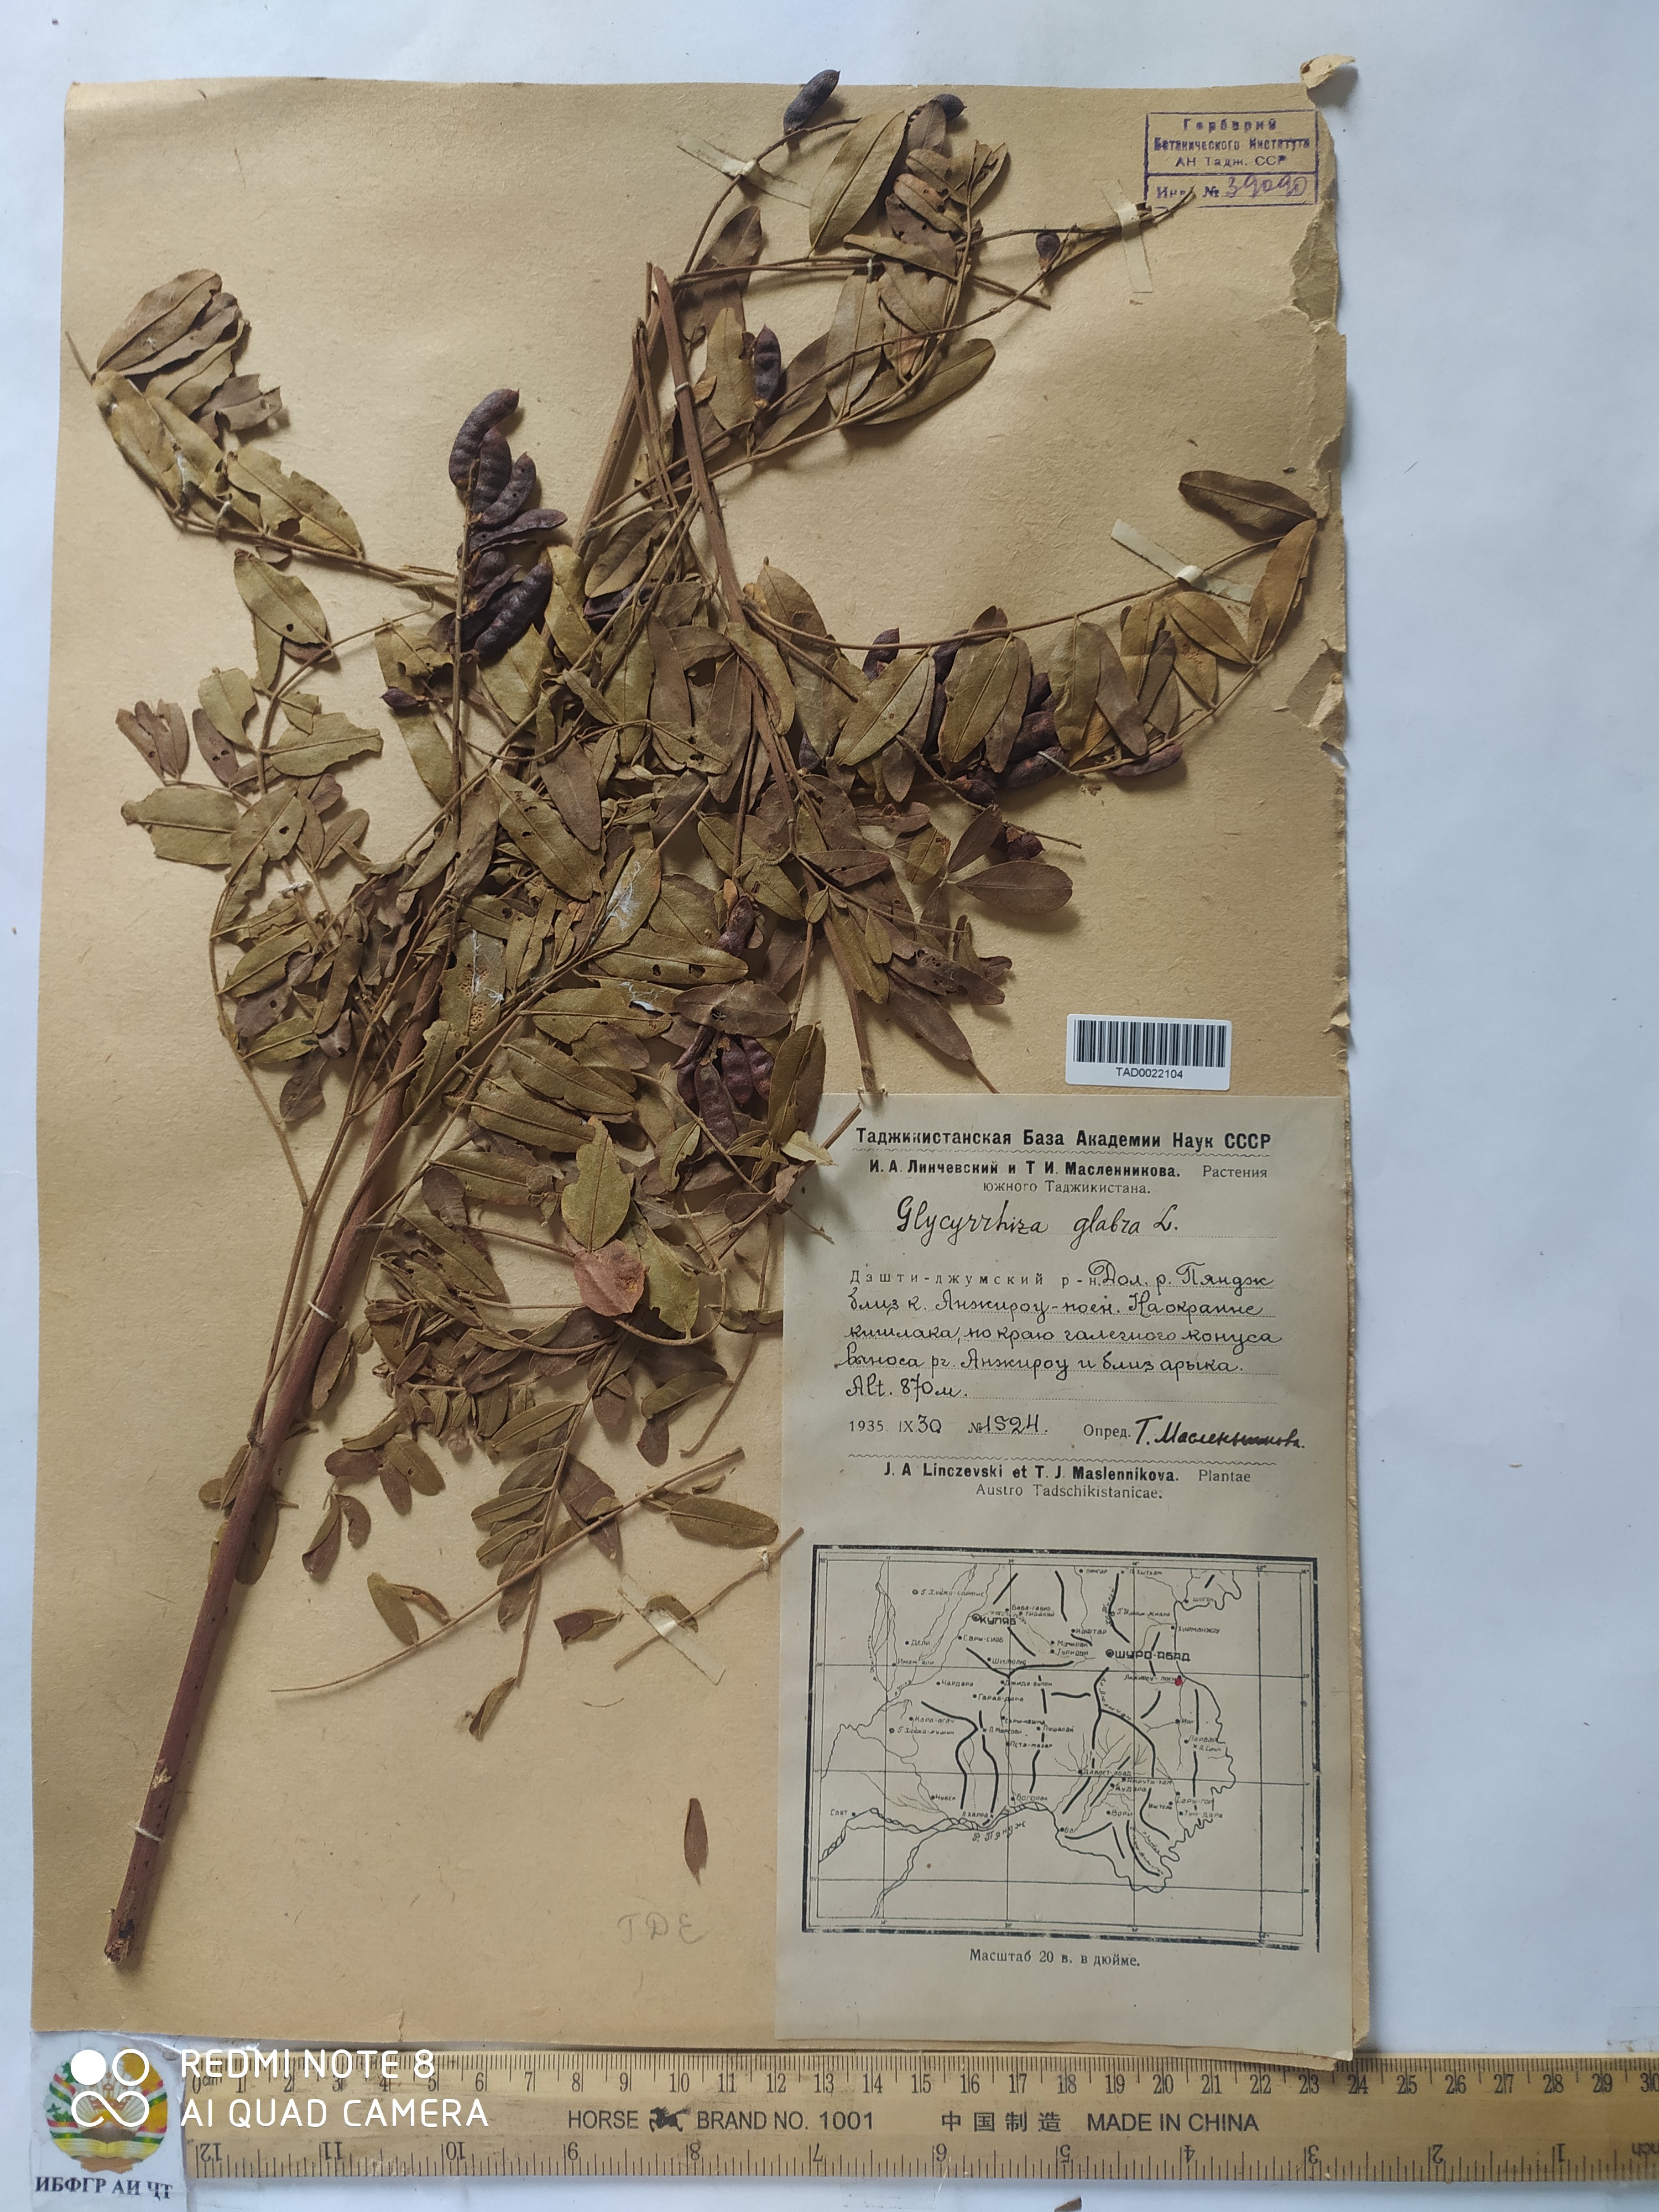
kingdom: Plantae
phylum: Tracheophyta
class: Magnoliopsida
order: Fabales
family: Fabaceae
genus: Glycyrrhiza
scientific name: Glycyrrhiza glabra
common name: Liquorice
